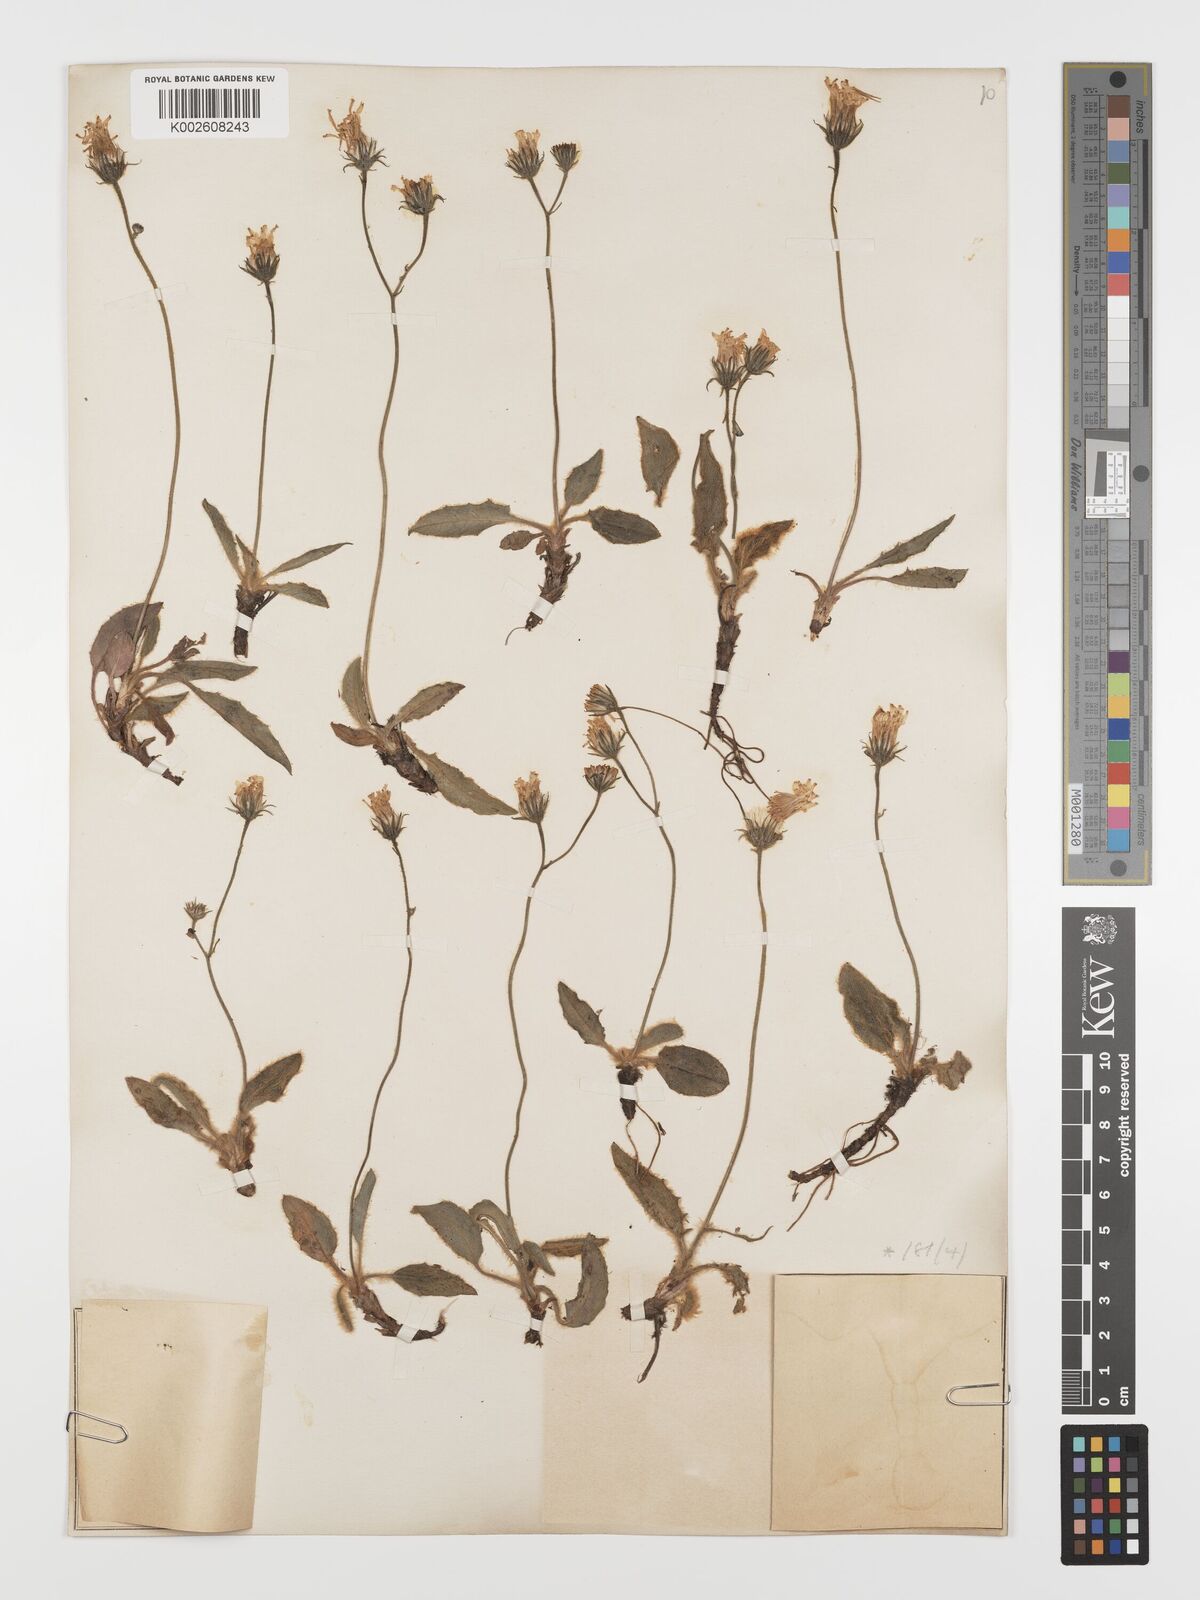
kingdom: Plantae
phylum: Tracheophyta
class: Magnoliopsida
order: Asterales
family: Asteraceae
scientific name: Asteraceae
